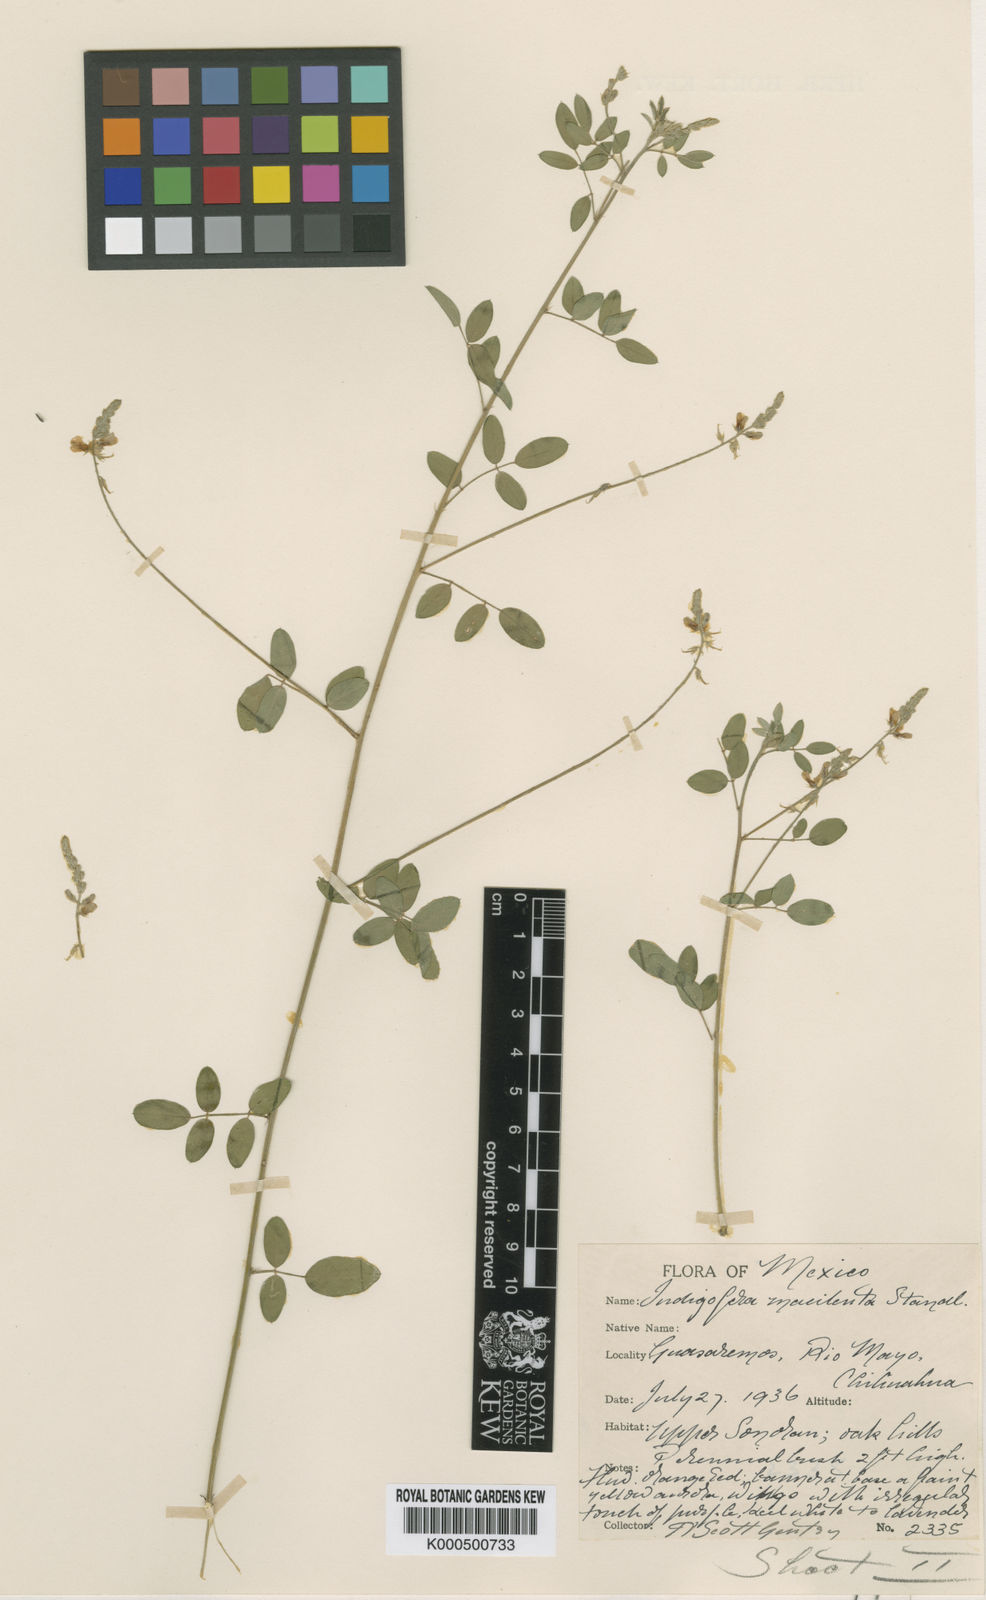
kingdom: Plantae
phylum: Tracheophyta
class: Magnoliopsida
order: Fabales
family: Fabaceae
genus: Indigofera
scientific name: Indigofera subulata
